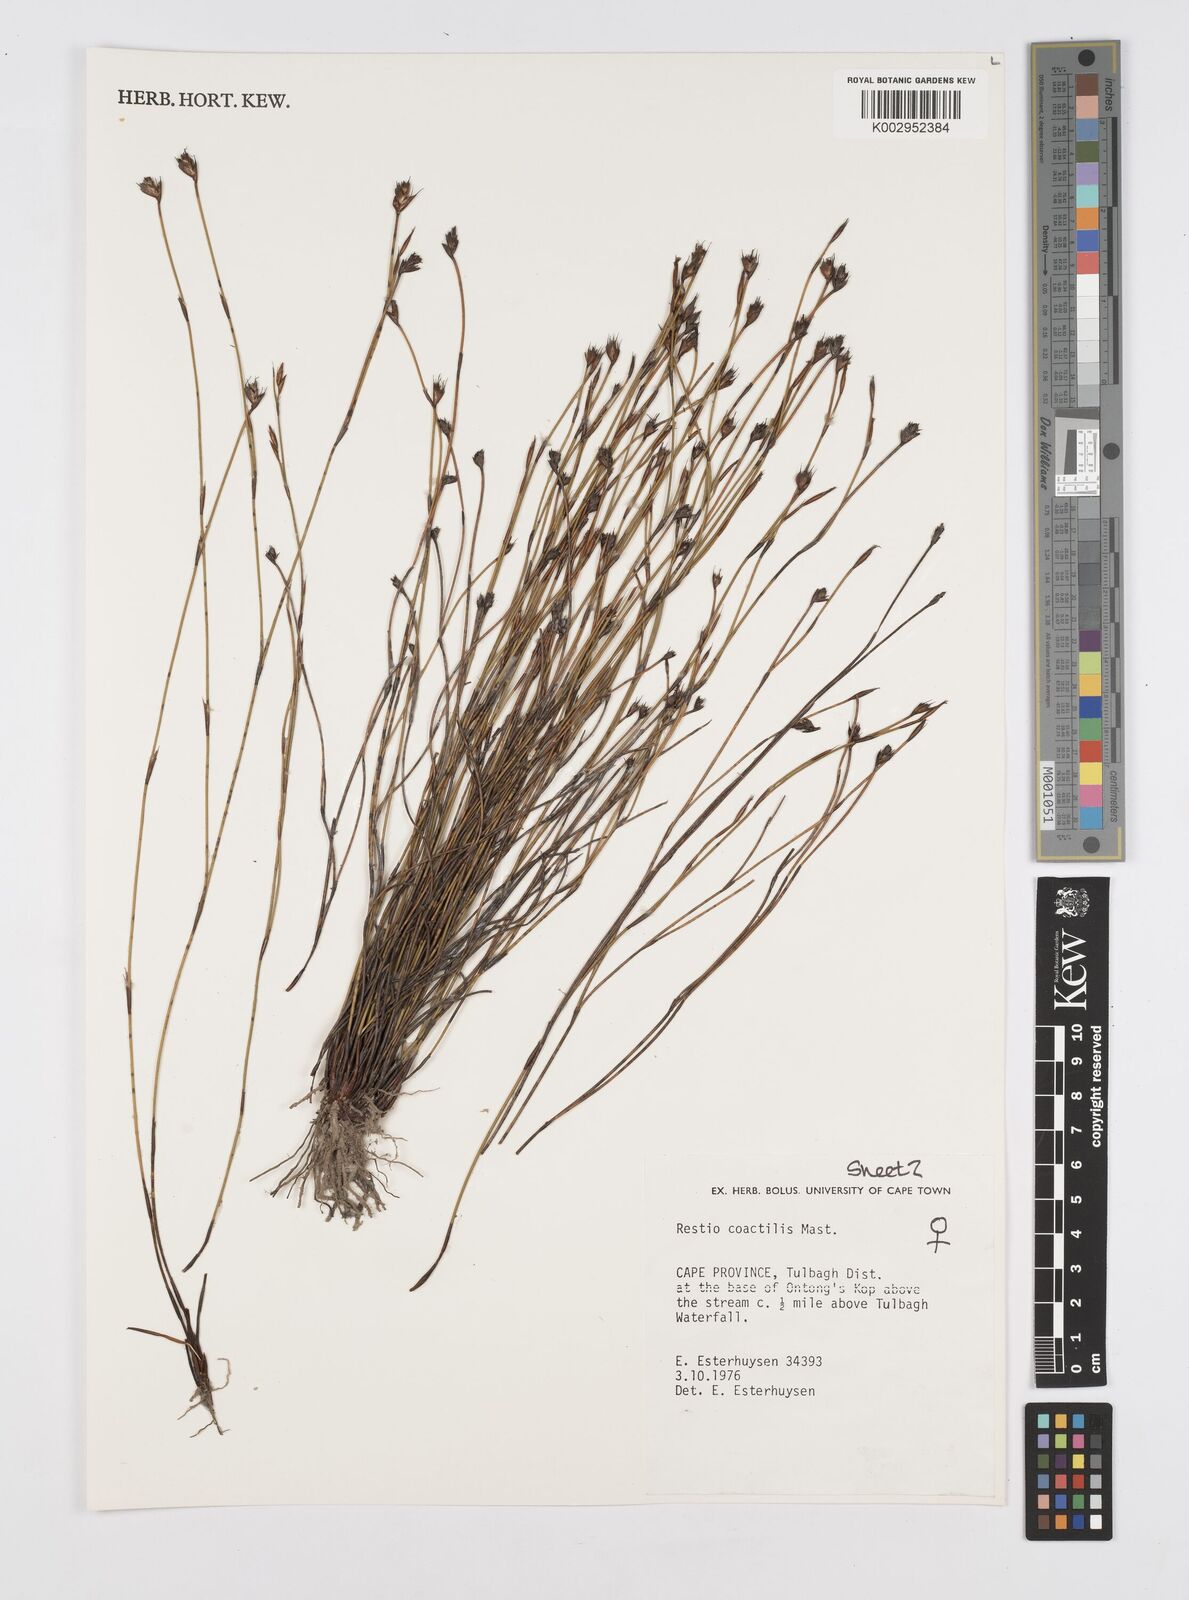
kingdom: Plantae
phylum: Tracheophyta
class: Liliopsida
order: Poales
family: Restionaceae
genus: Restio
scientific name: Restio coactilis
